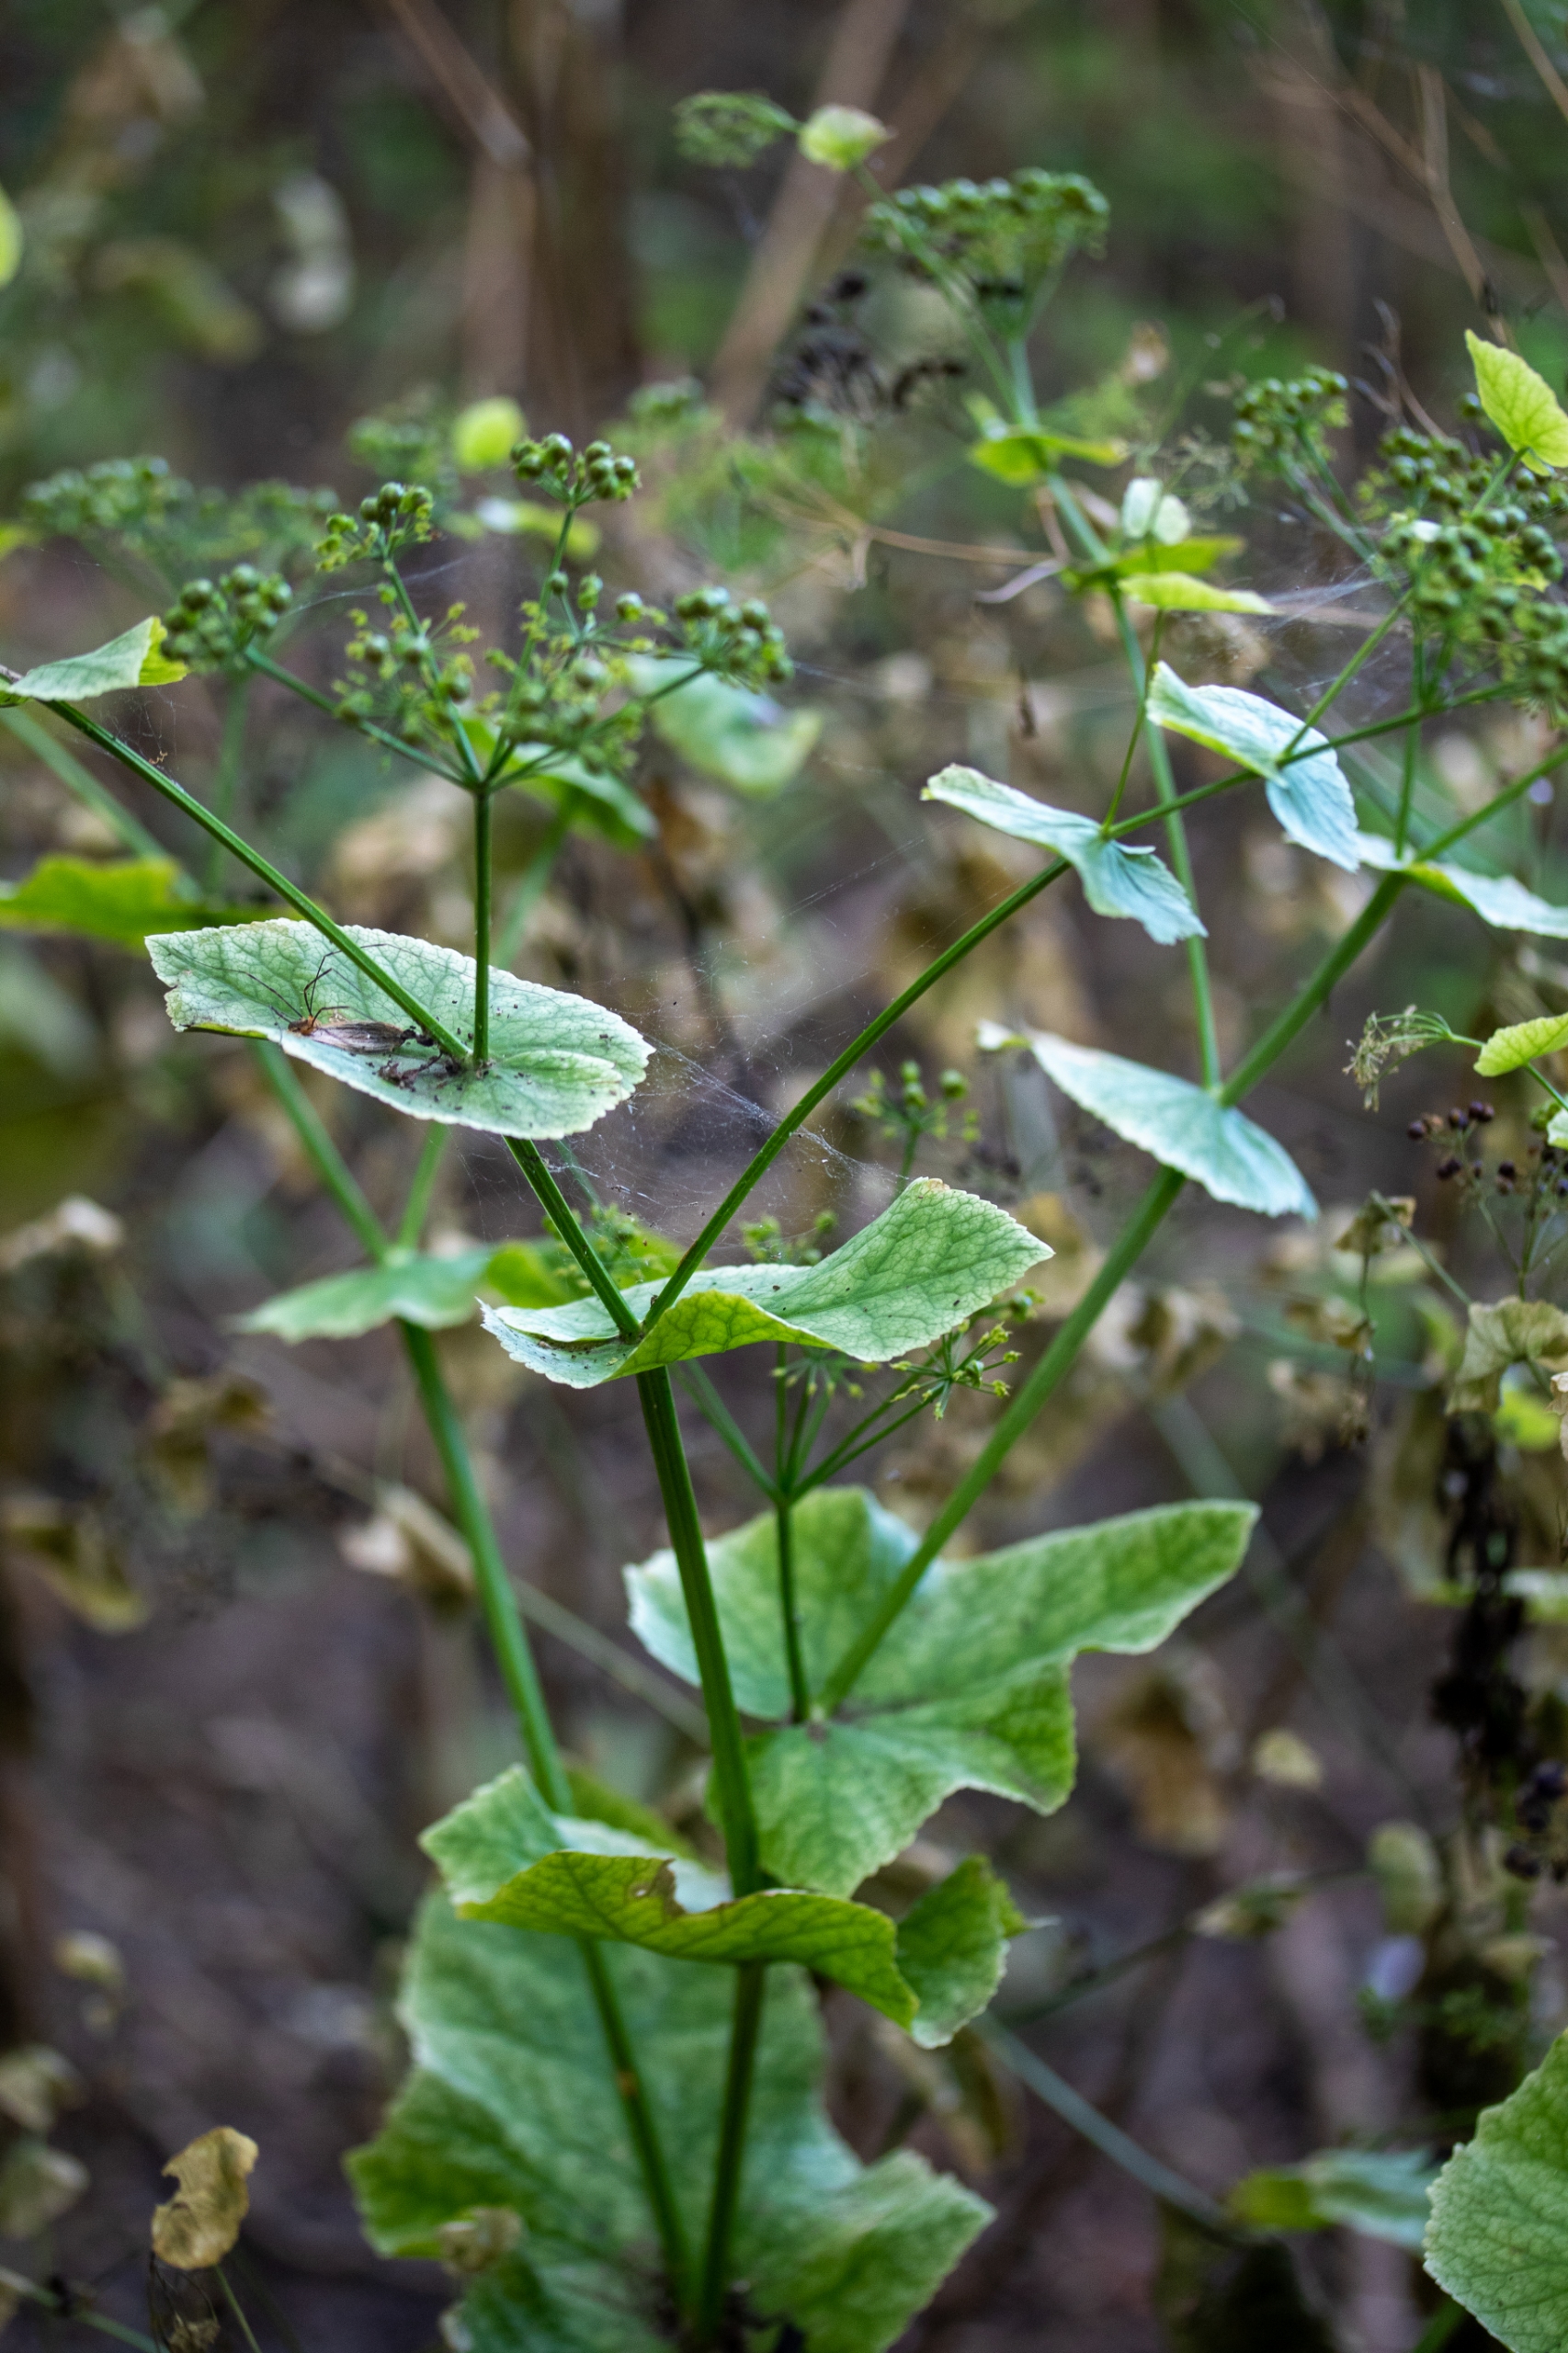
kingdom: Plantae
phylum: Tracheophyta
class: Magnoliopsida
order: Apiales
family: Apiaceae
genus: Smyrnium
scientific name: Smyrnium perfoliatum
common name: Lundgylden
